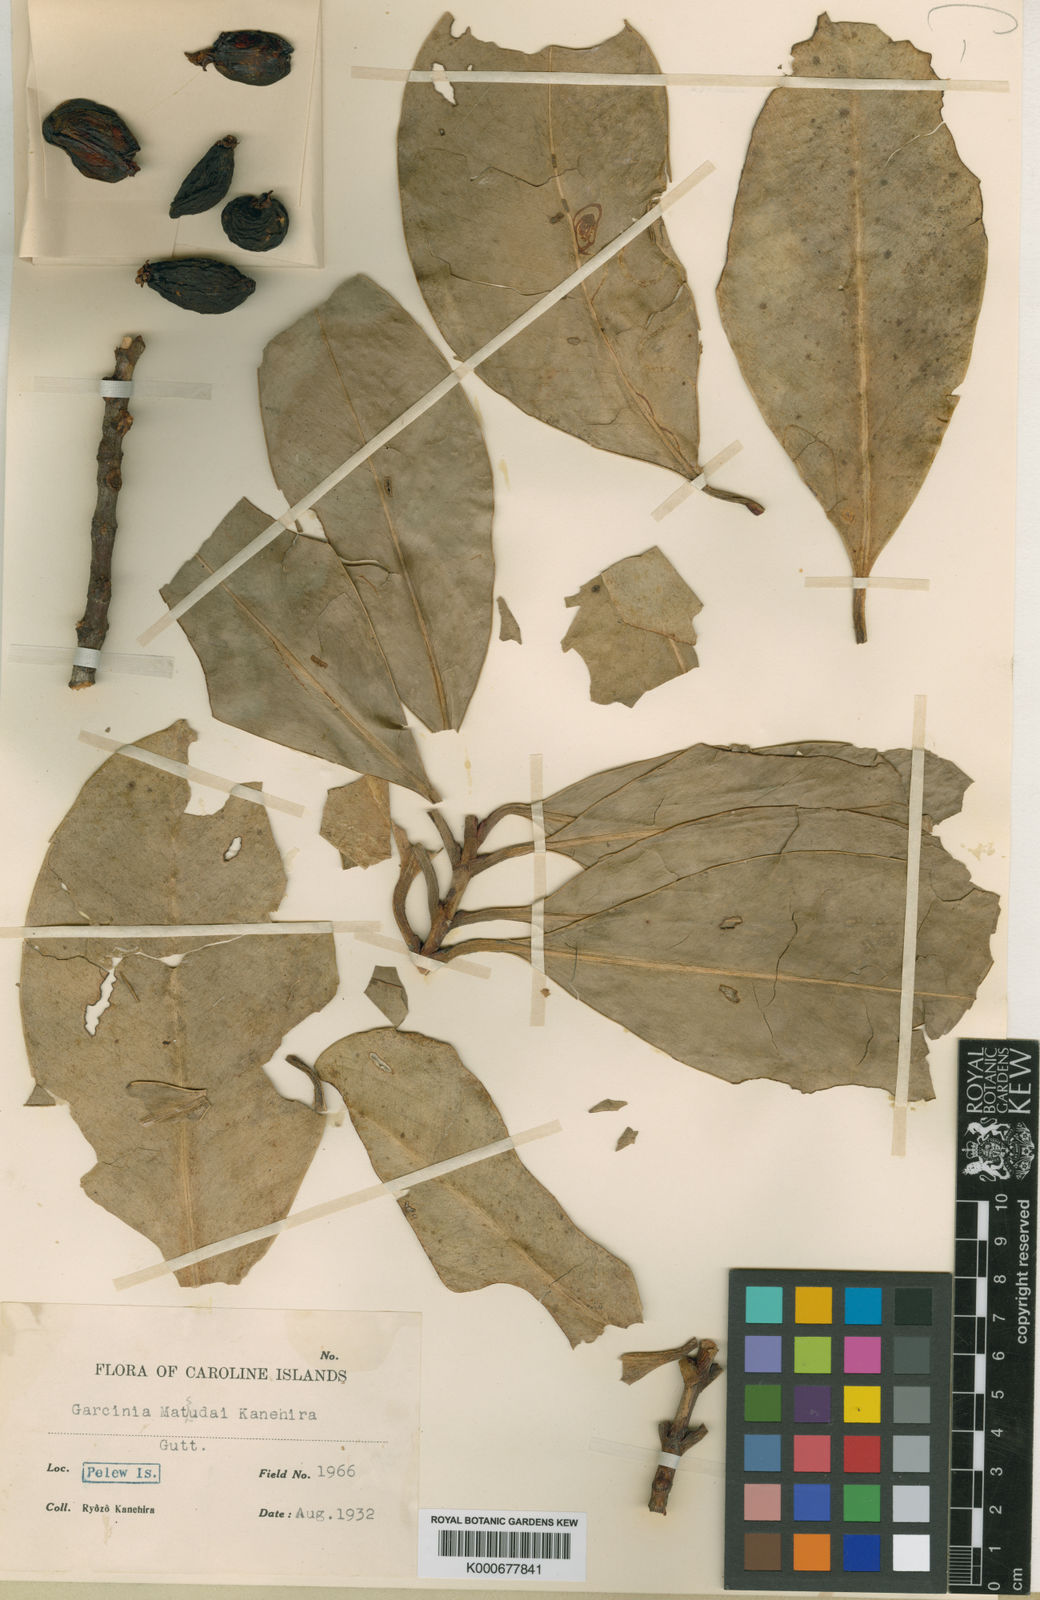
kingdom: Plantae
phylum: Tracheophyta
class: Magnoliopsida
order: Malpighiales
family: Clusiaceae
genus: Garcinia
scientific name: Garcinia
